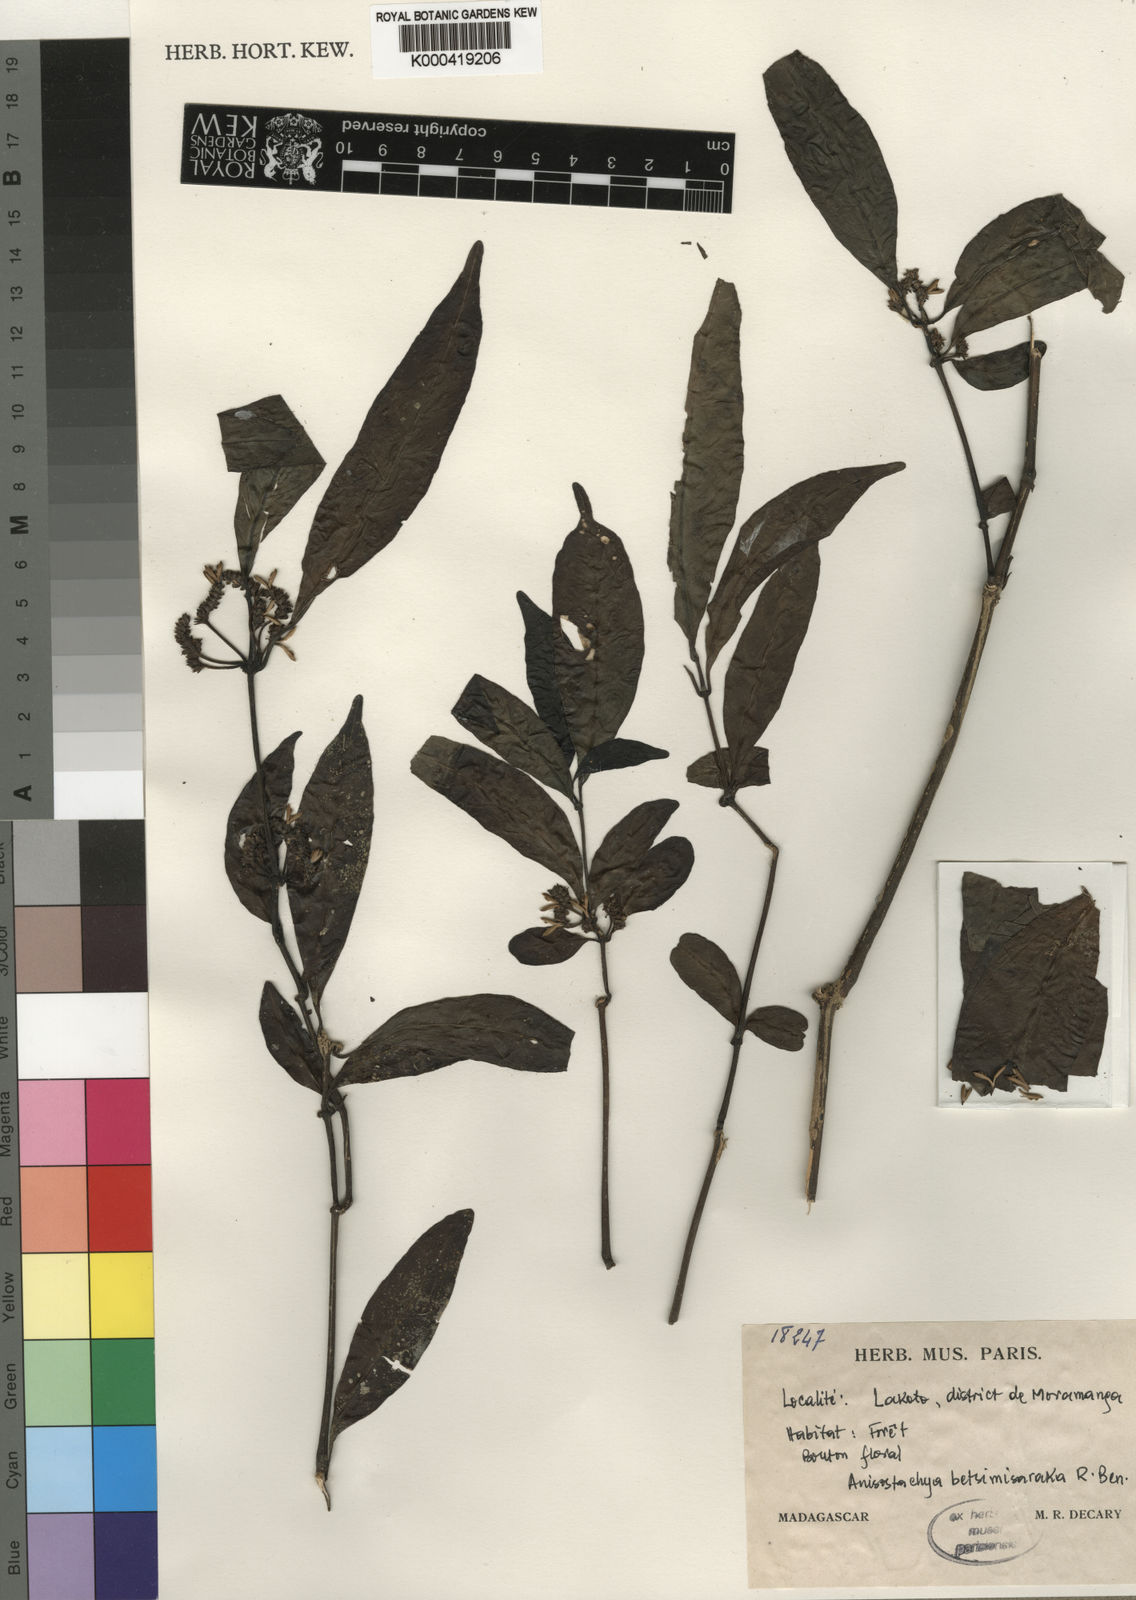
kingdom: Plantae
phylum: Tracheophyta
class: Magnoliopsida
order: Lamiales
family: Acanthaceae
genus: Justicia
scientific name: Justicia
